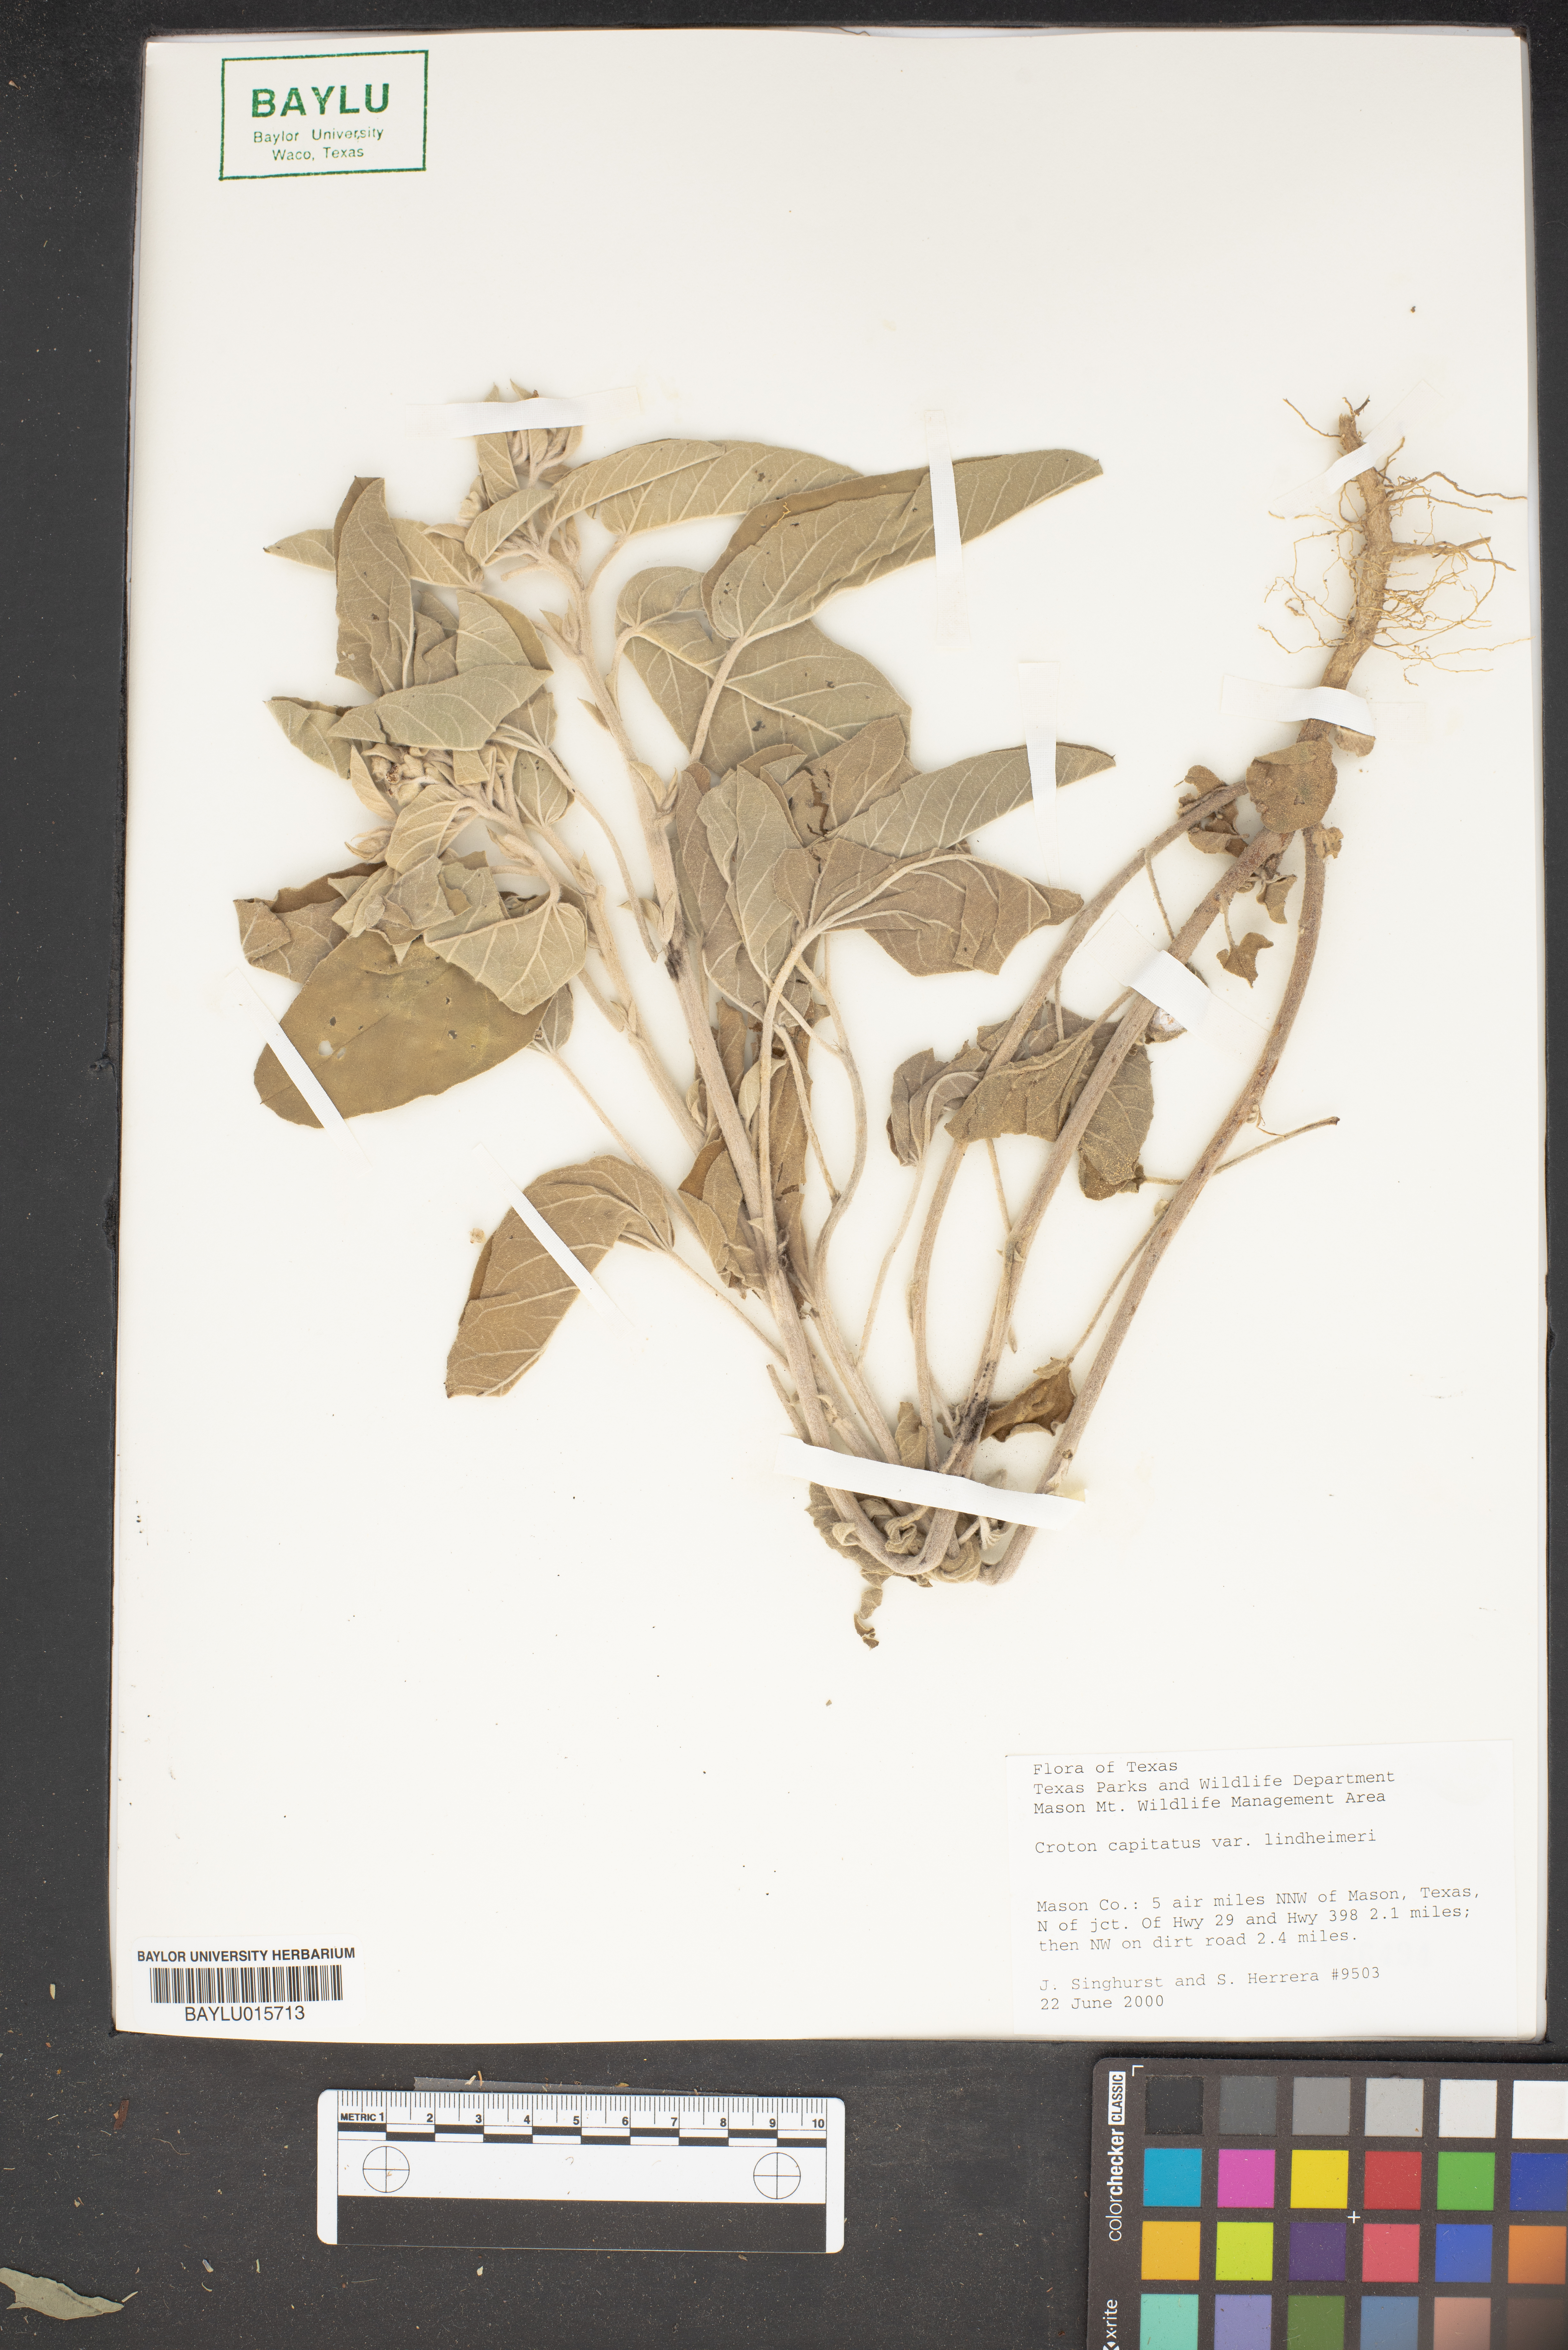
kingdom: Plantae
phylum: Tracheophyta
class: Magnoliopsida
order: Malpighiales
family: Euphorbiaceae
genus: Croton
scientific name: Croton lindheimeri
